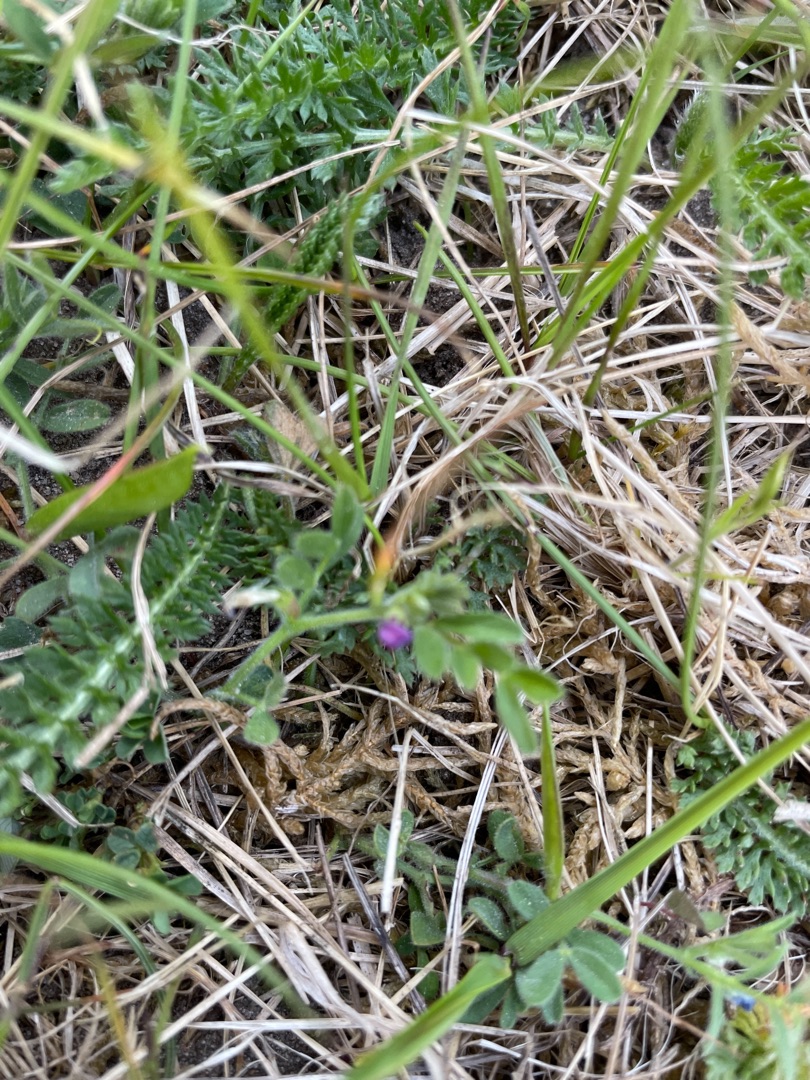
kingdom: Plantae
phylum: Tracheophyta
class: Magnoliopsida
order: Fabales
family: Fabaceae
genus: Vicia
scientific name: Vicia lathyroides
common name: Vår-vikke
